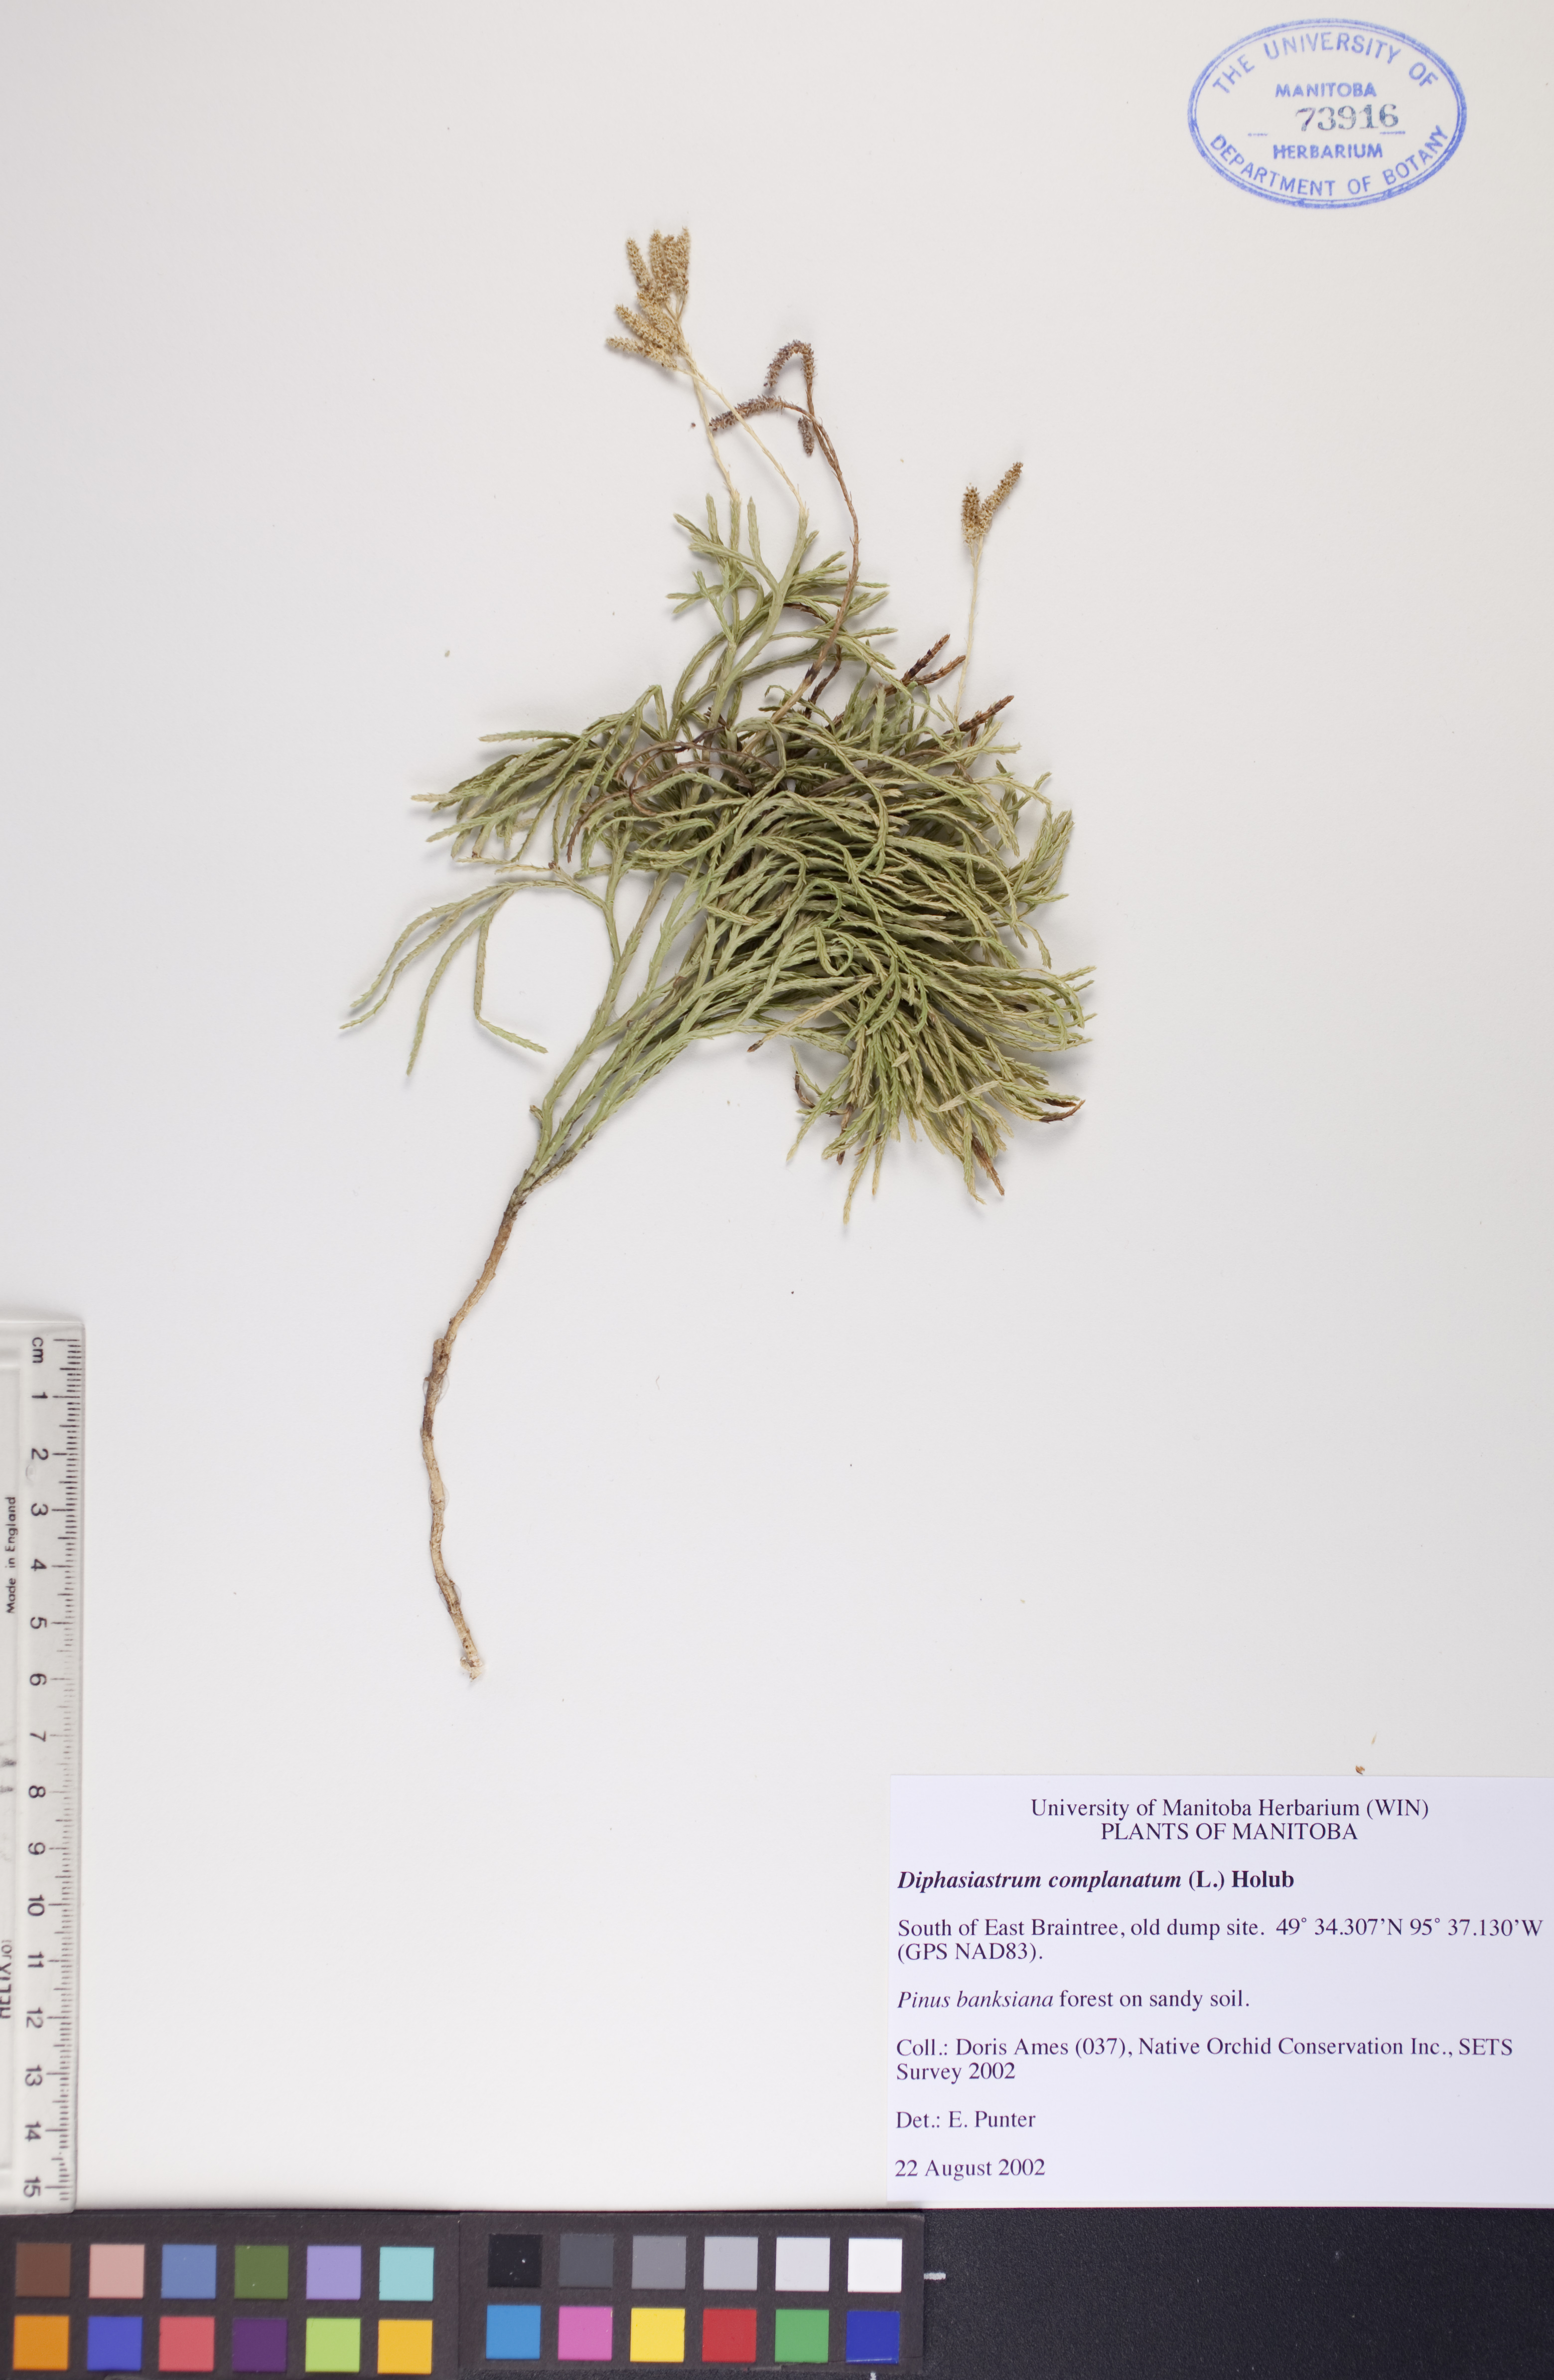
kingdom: Plantae
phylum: Tracheophyta
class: Lycopodiopsida
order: Lycopodiales
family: Lycopodiaceae
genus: Diphasiastrum
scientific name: Diphasiastrum complanatum
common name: Northern running-pine
